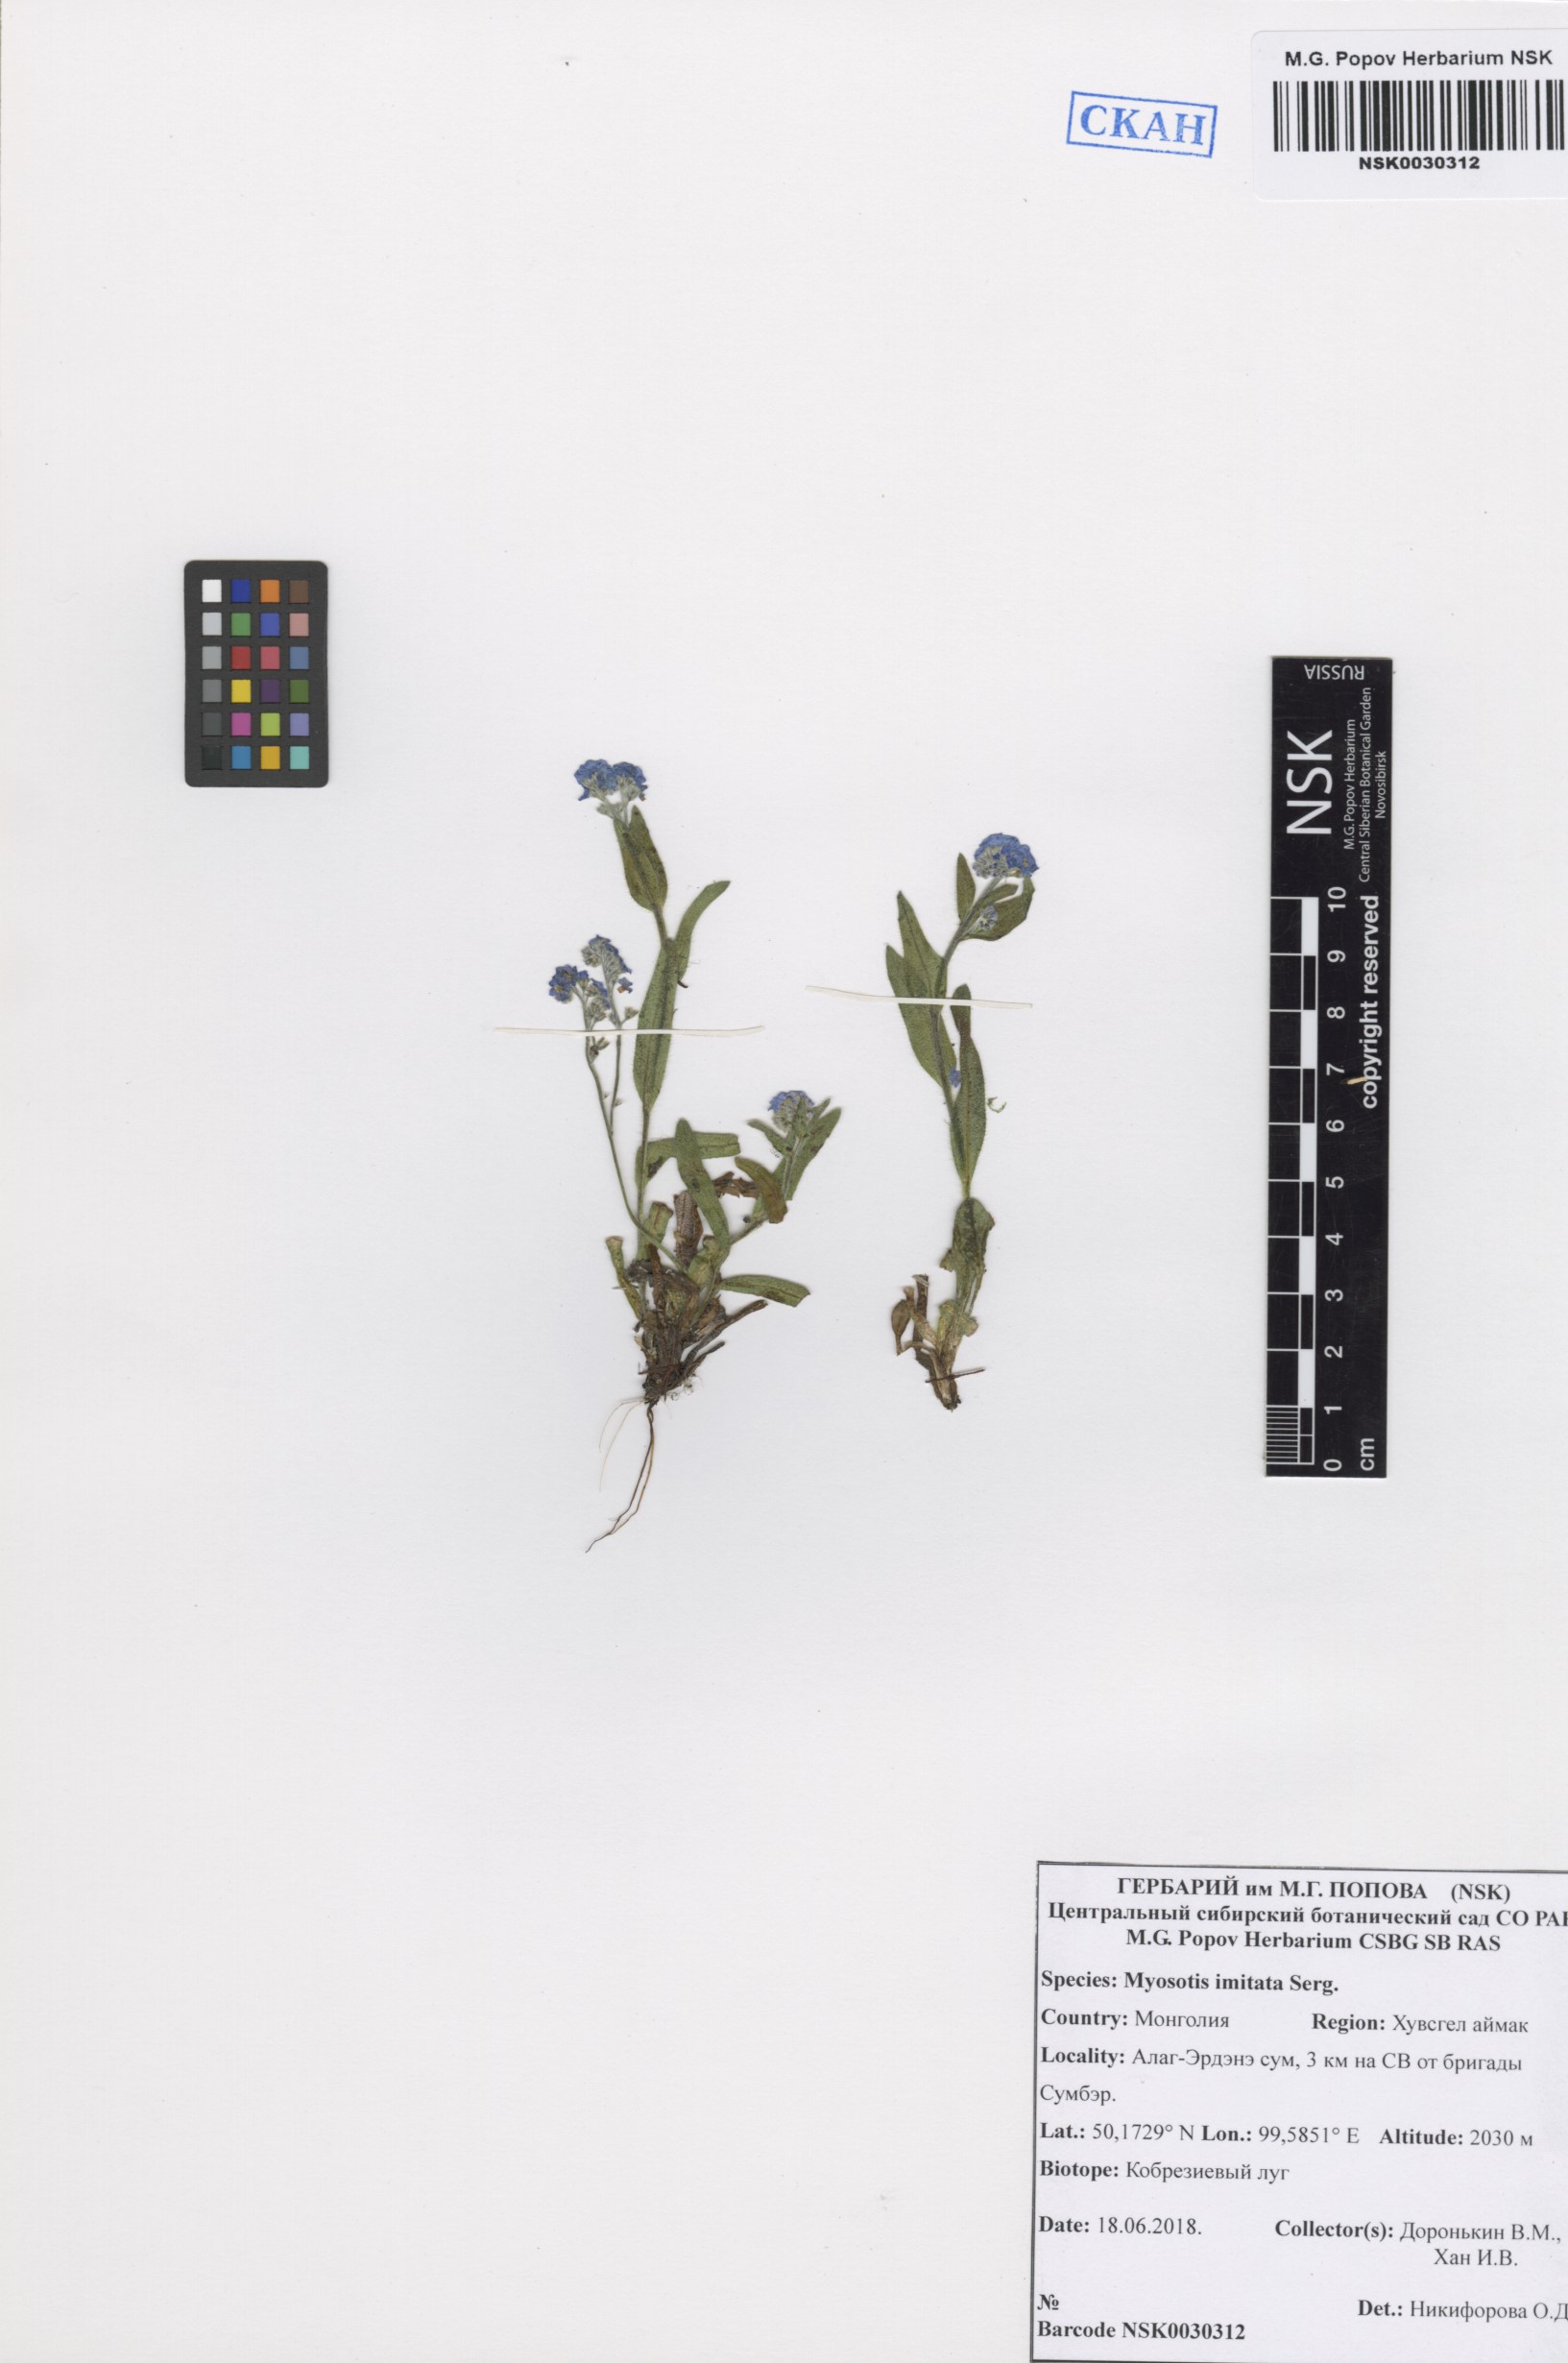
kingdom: Plantae
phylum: Tracheophyta
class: Magnoliopsida
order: Boraginales
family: Boraginaceae
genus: Myosotis
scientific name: Myosotis imitata
